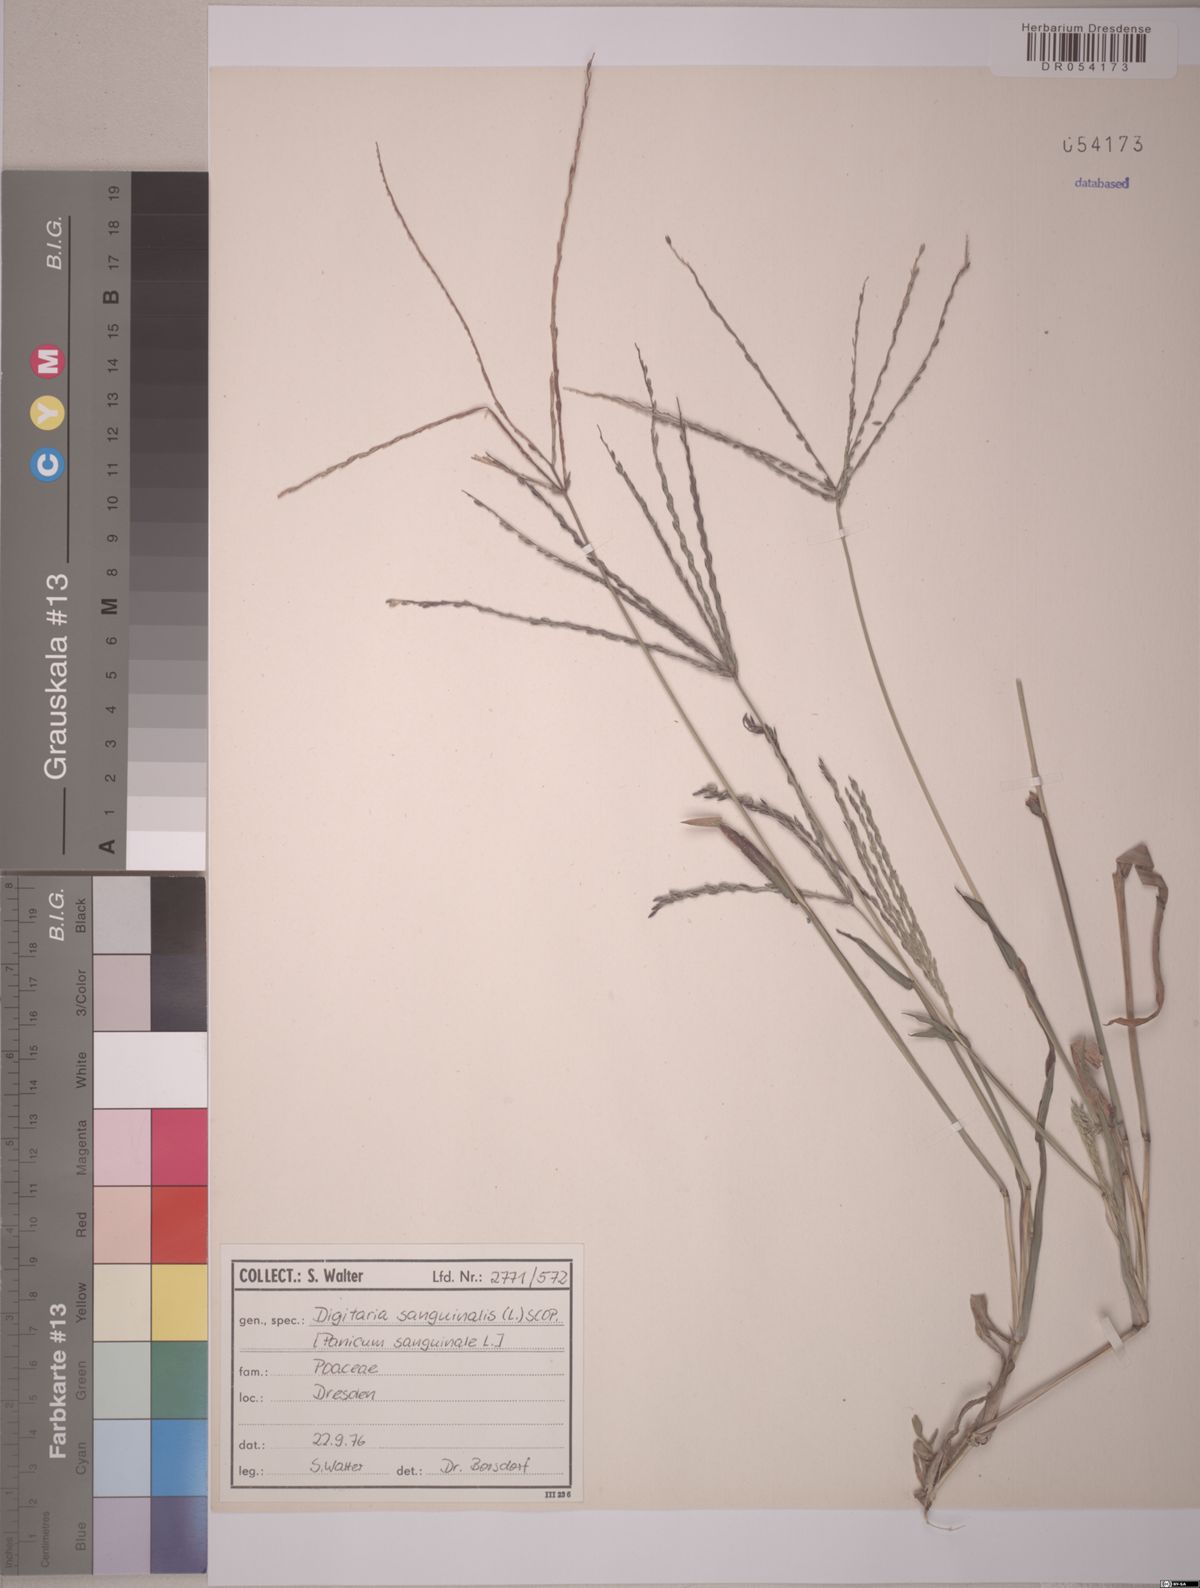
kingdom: Plantae
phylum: Tracheophyta
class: Liliopsida
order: Poales
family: Poaceae
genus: Digitaria
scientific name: Digitaria sanguinalis
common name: Hairy crabgrass
